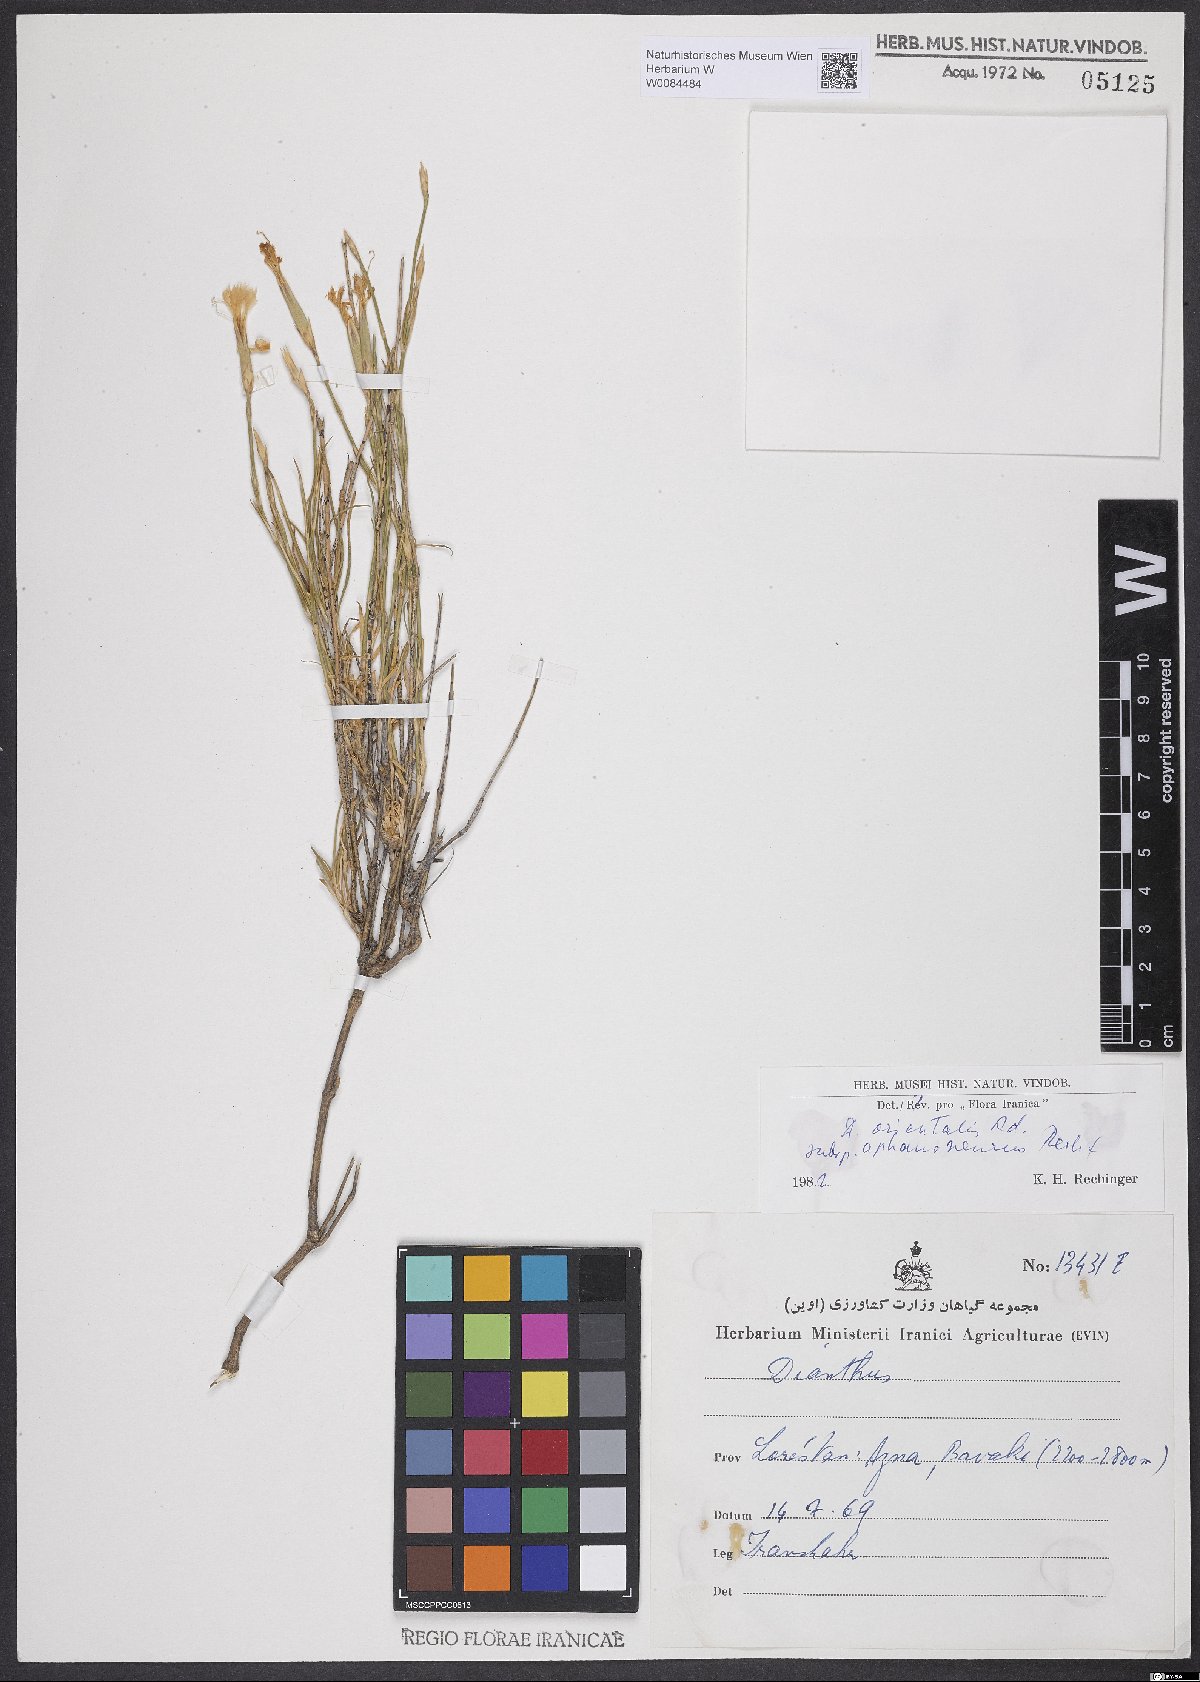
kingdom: Plantae
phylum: Tracheophyta
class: Magnoliopsida
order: Caryophyllales
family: Caryophyllaceae
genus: Dianthus
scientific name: Dianthus orientalis
